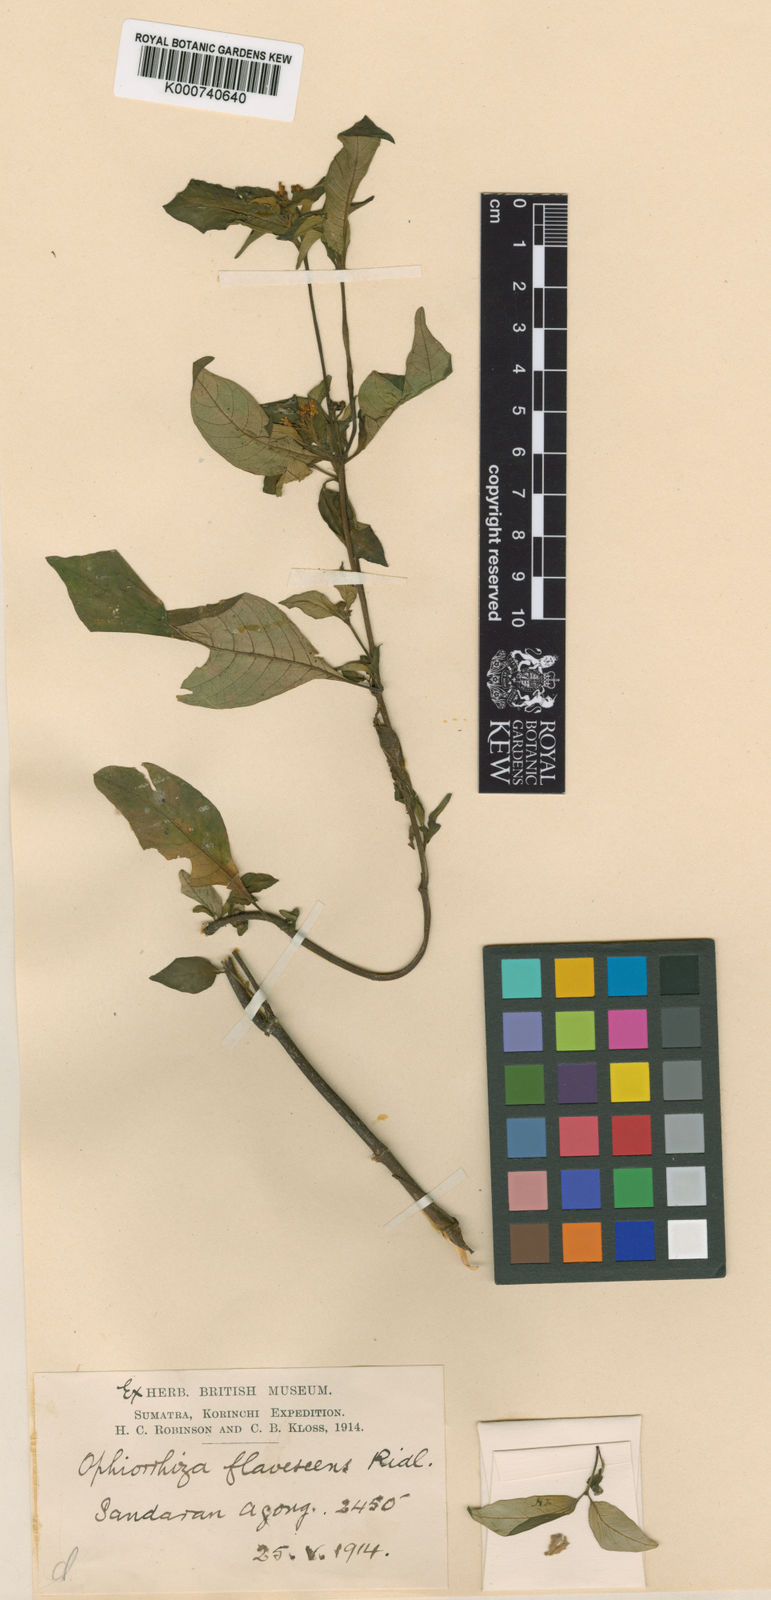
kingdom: Plantae
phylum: Tracheophyta
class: Magnoliopsida
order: Gentianales
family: Rubiaceae
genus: Ophiorrhiza
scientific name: Ophiorrhiza flavescens
